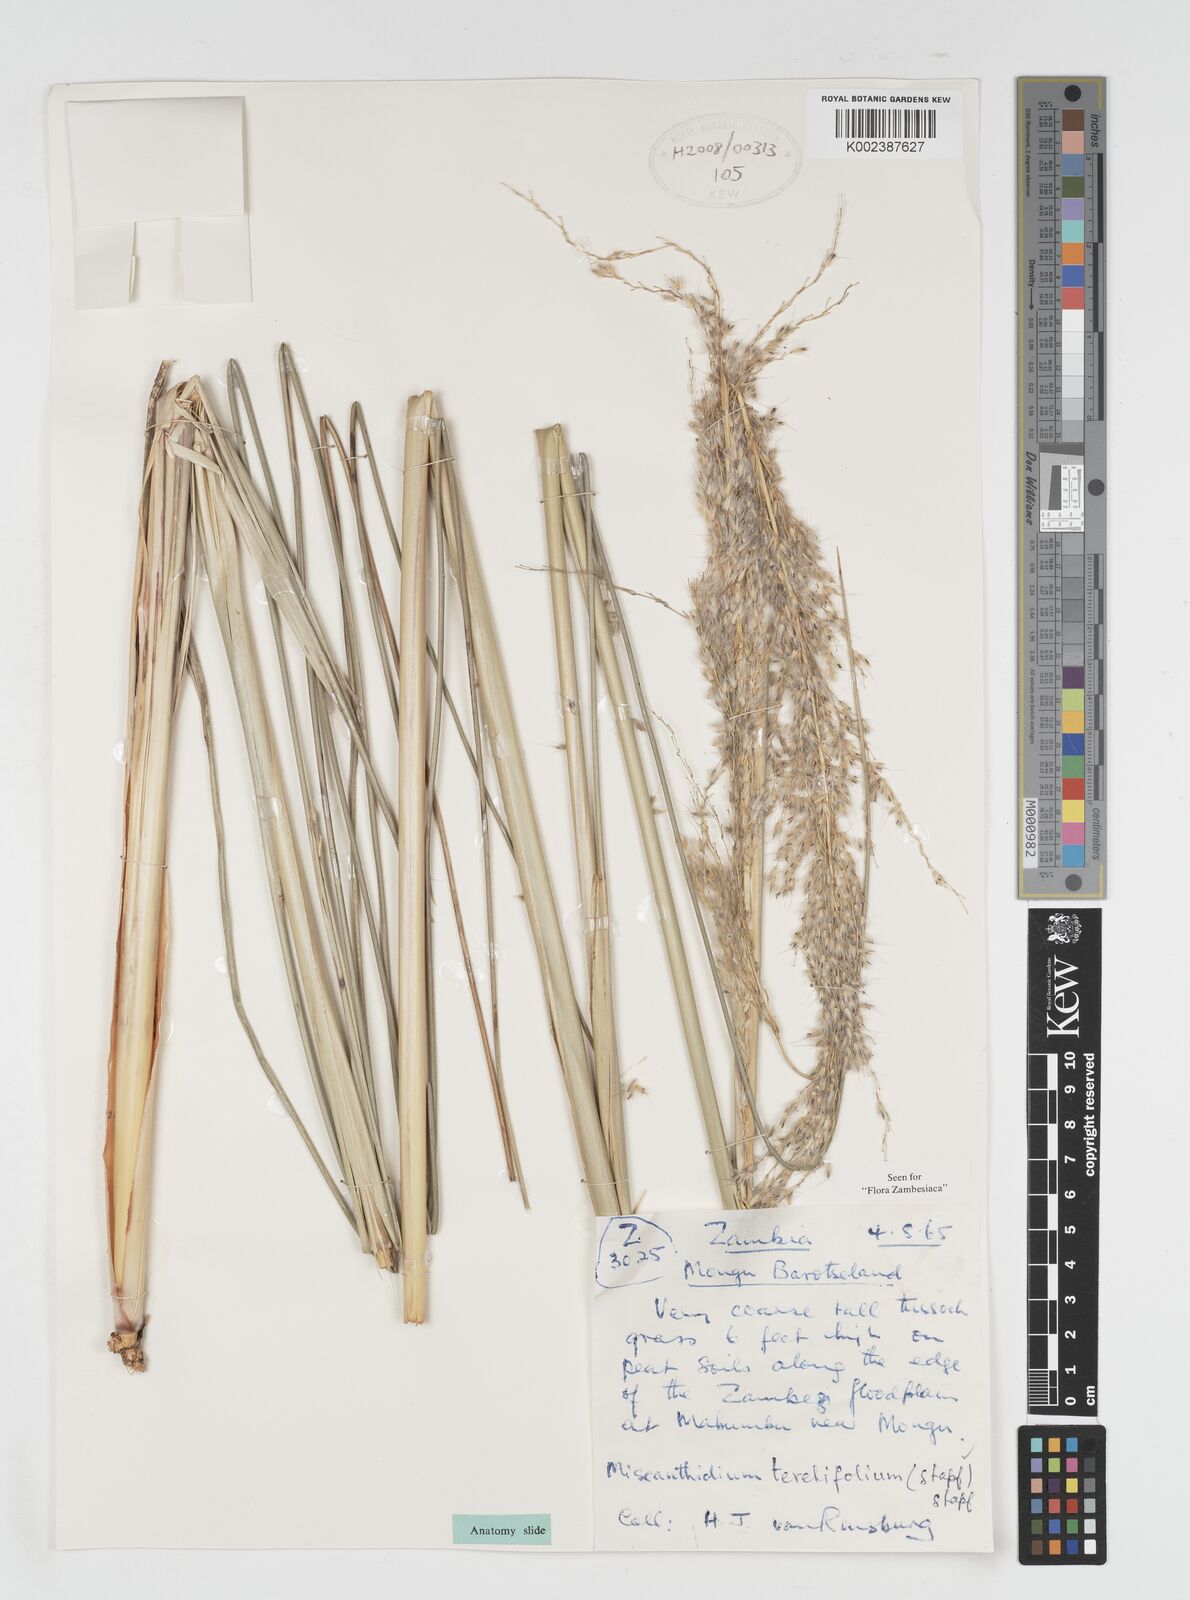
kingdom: Plantae
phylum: Tracheophyta
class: Liliopsida
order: Poales
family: Poaceae
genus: Miscanthidium
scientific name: Miscanthidium junceum
